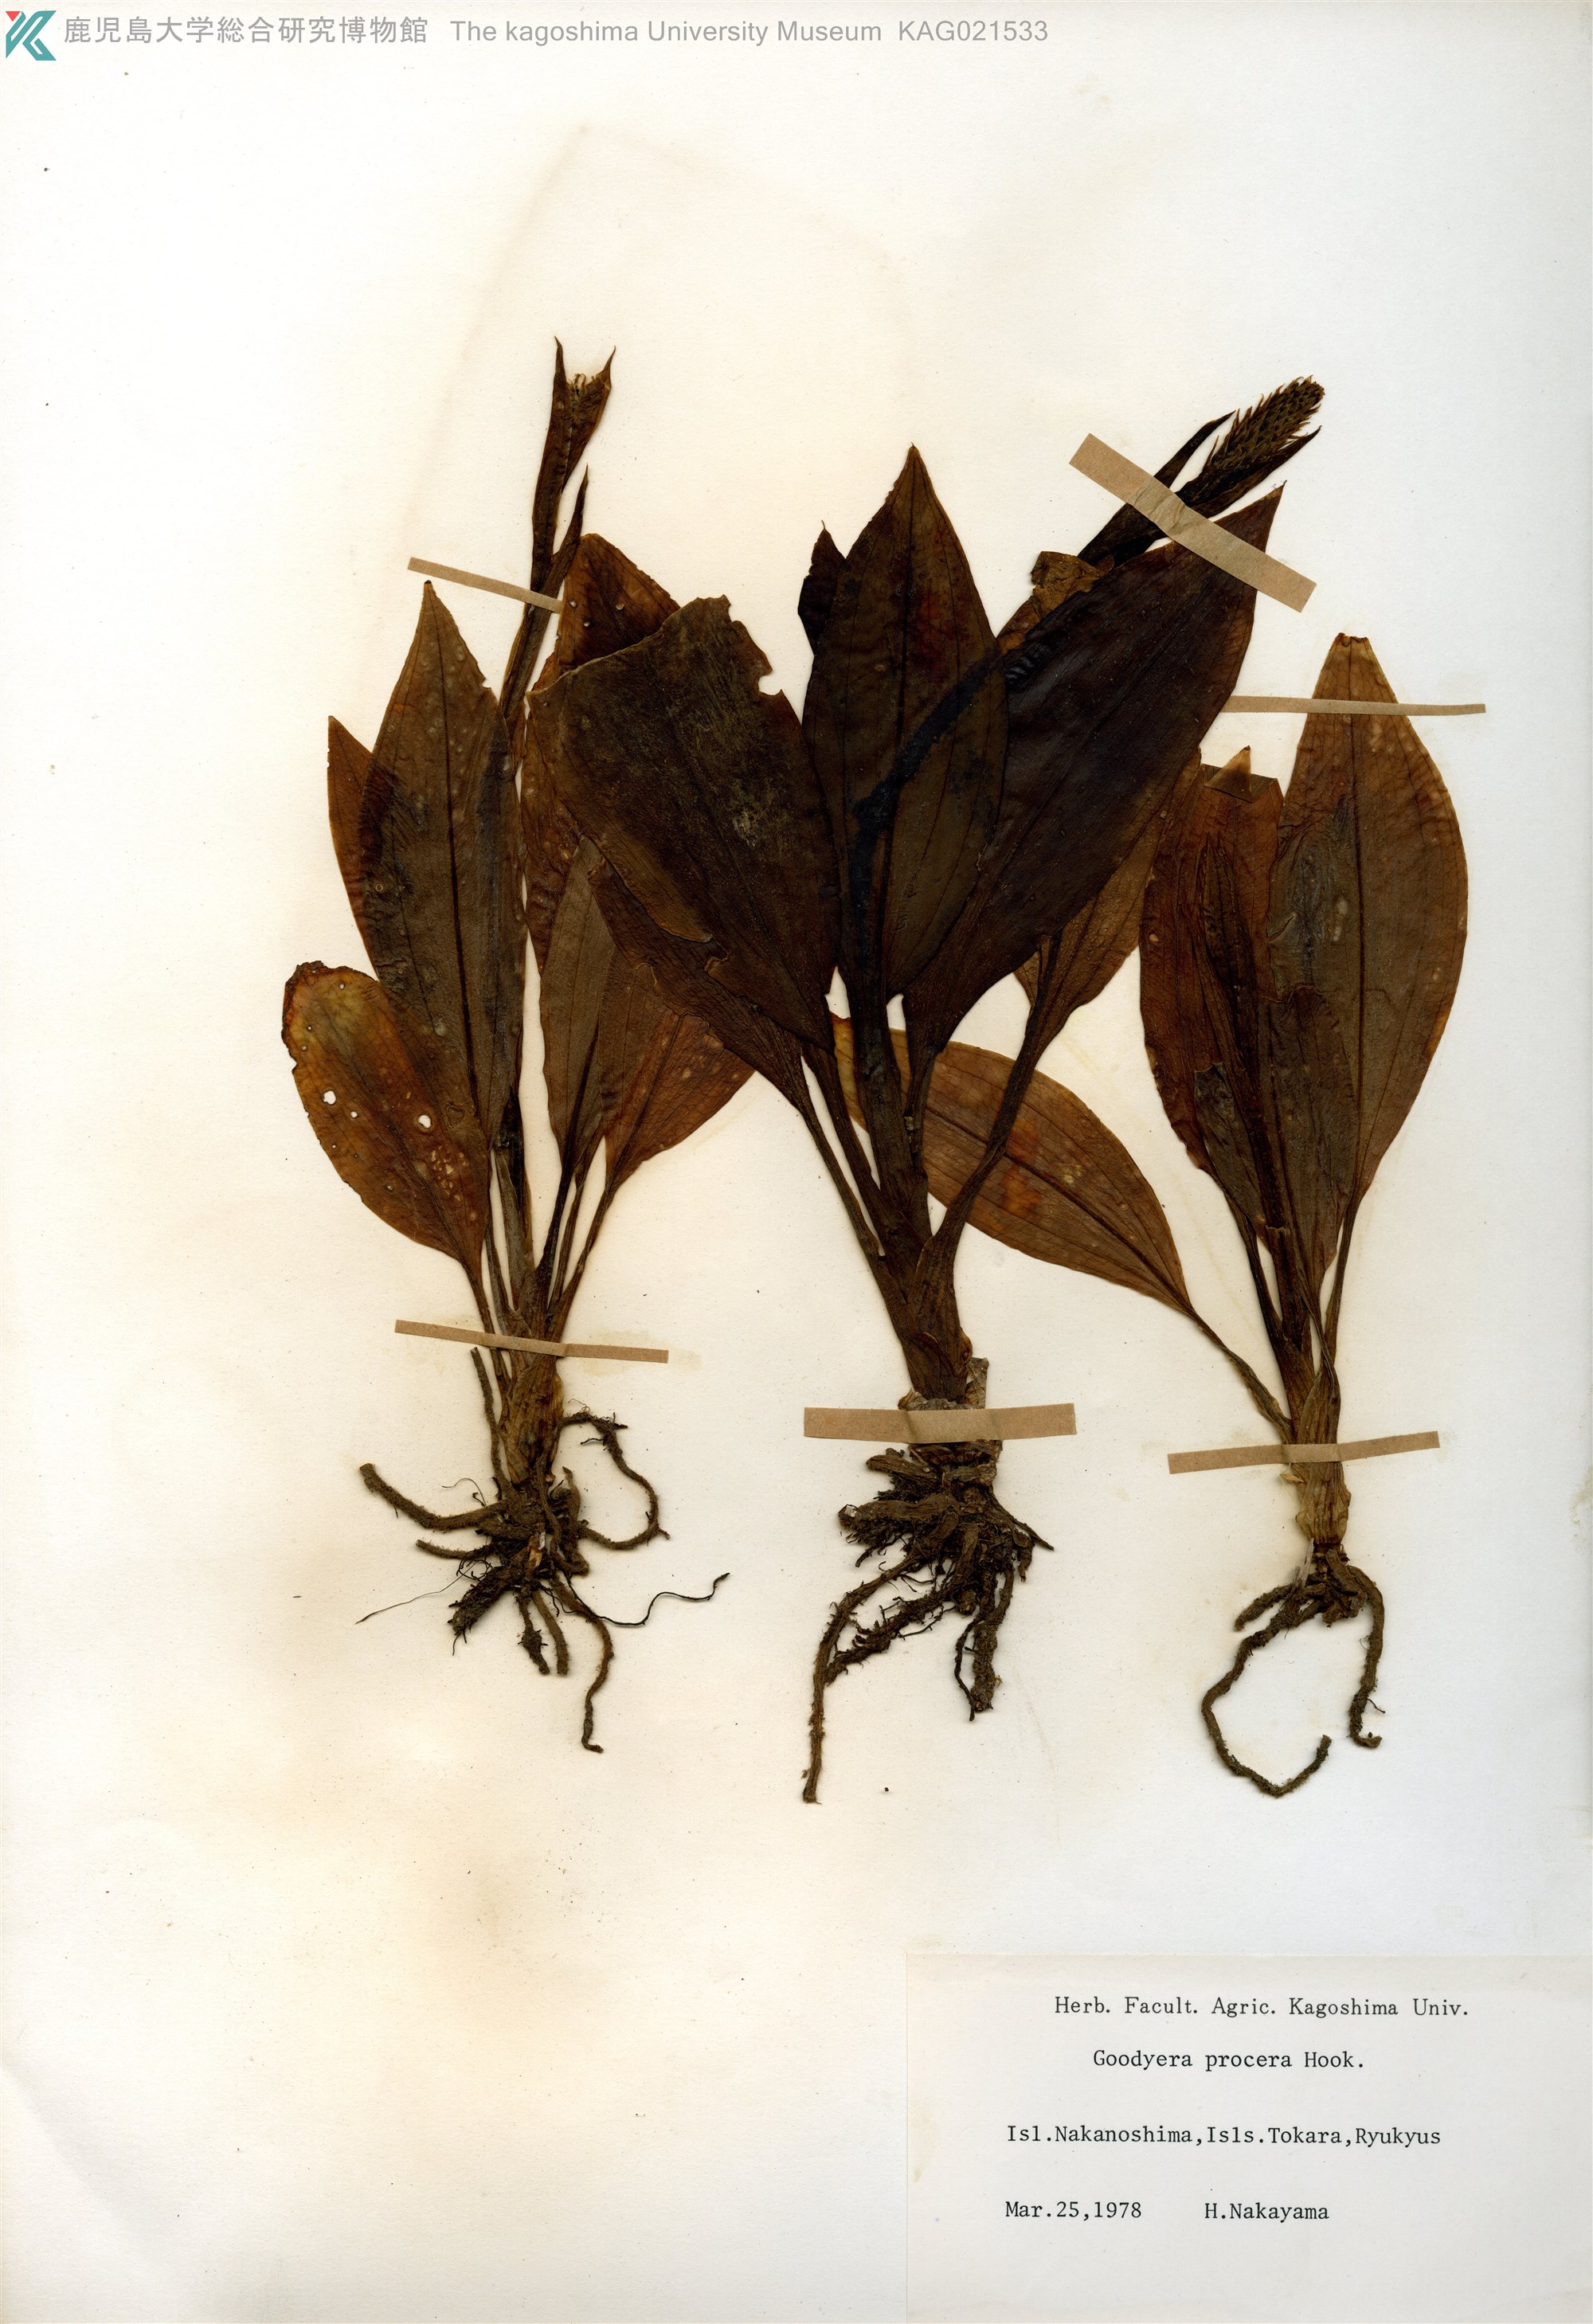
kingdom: Plantae
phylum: Tracheophyta
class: Liliopsida
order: Asparagales
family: Orchidaceae
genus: Goodyera
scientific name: Goodyera procera
